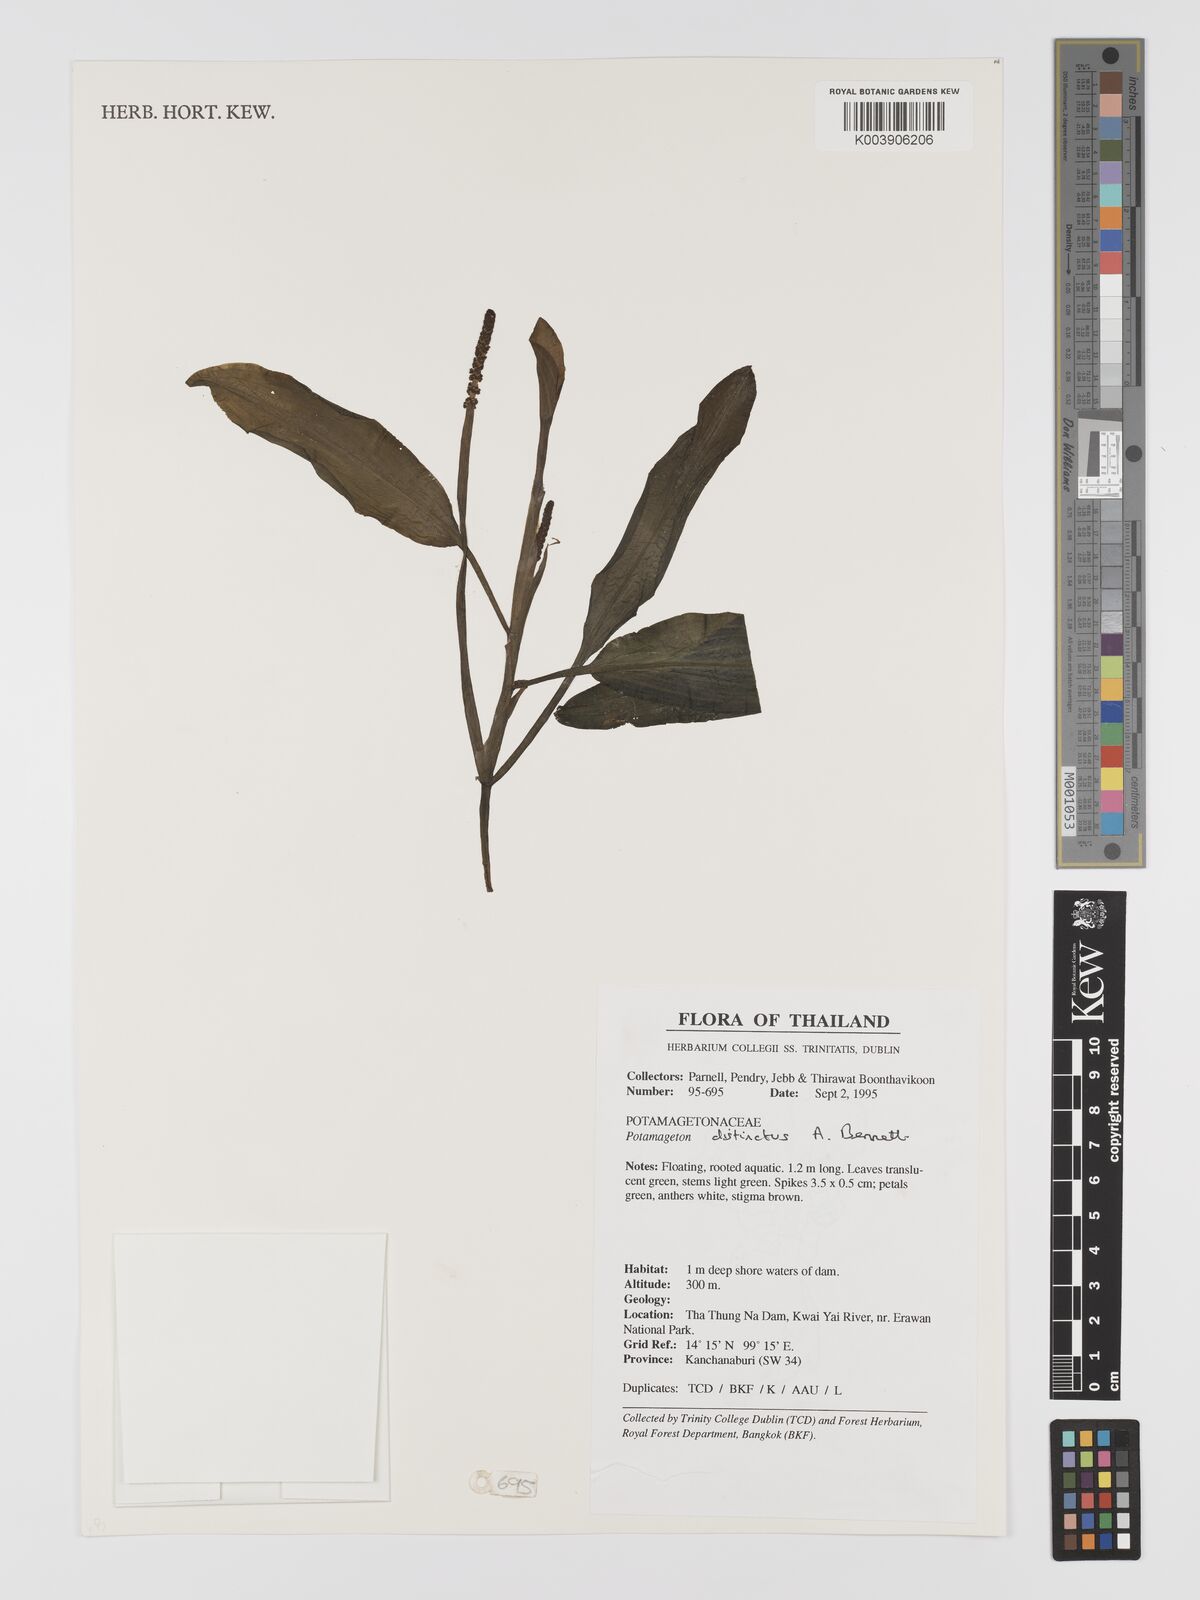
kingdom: Plantae
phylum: Tracheophyta
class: Liliopsida
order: Alismatales
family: Potamogetonaceae
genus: Potamogeton
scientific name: Potamogeton distinctus
